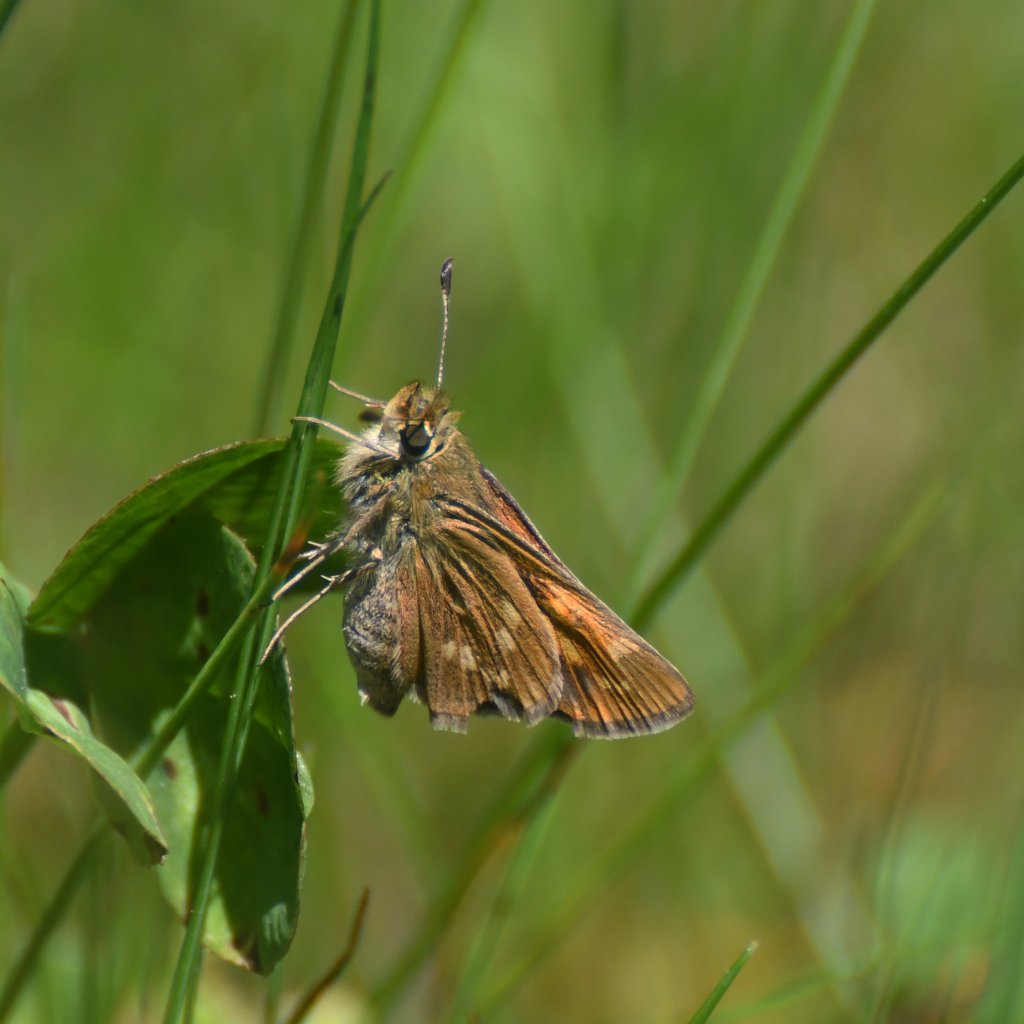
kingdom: Animalia
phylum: Arthropoda
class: Insecta
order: Lepidoptera
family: Hesperiidae
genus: Hesperia
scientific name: Hesperia sassacus
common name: Sassacus Skipper
